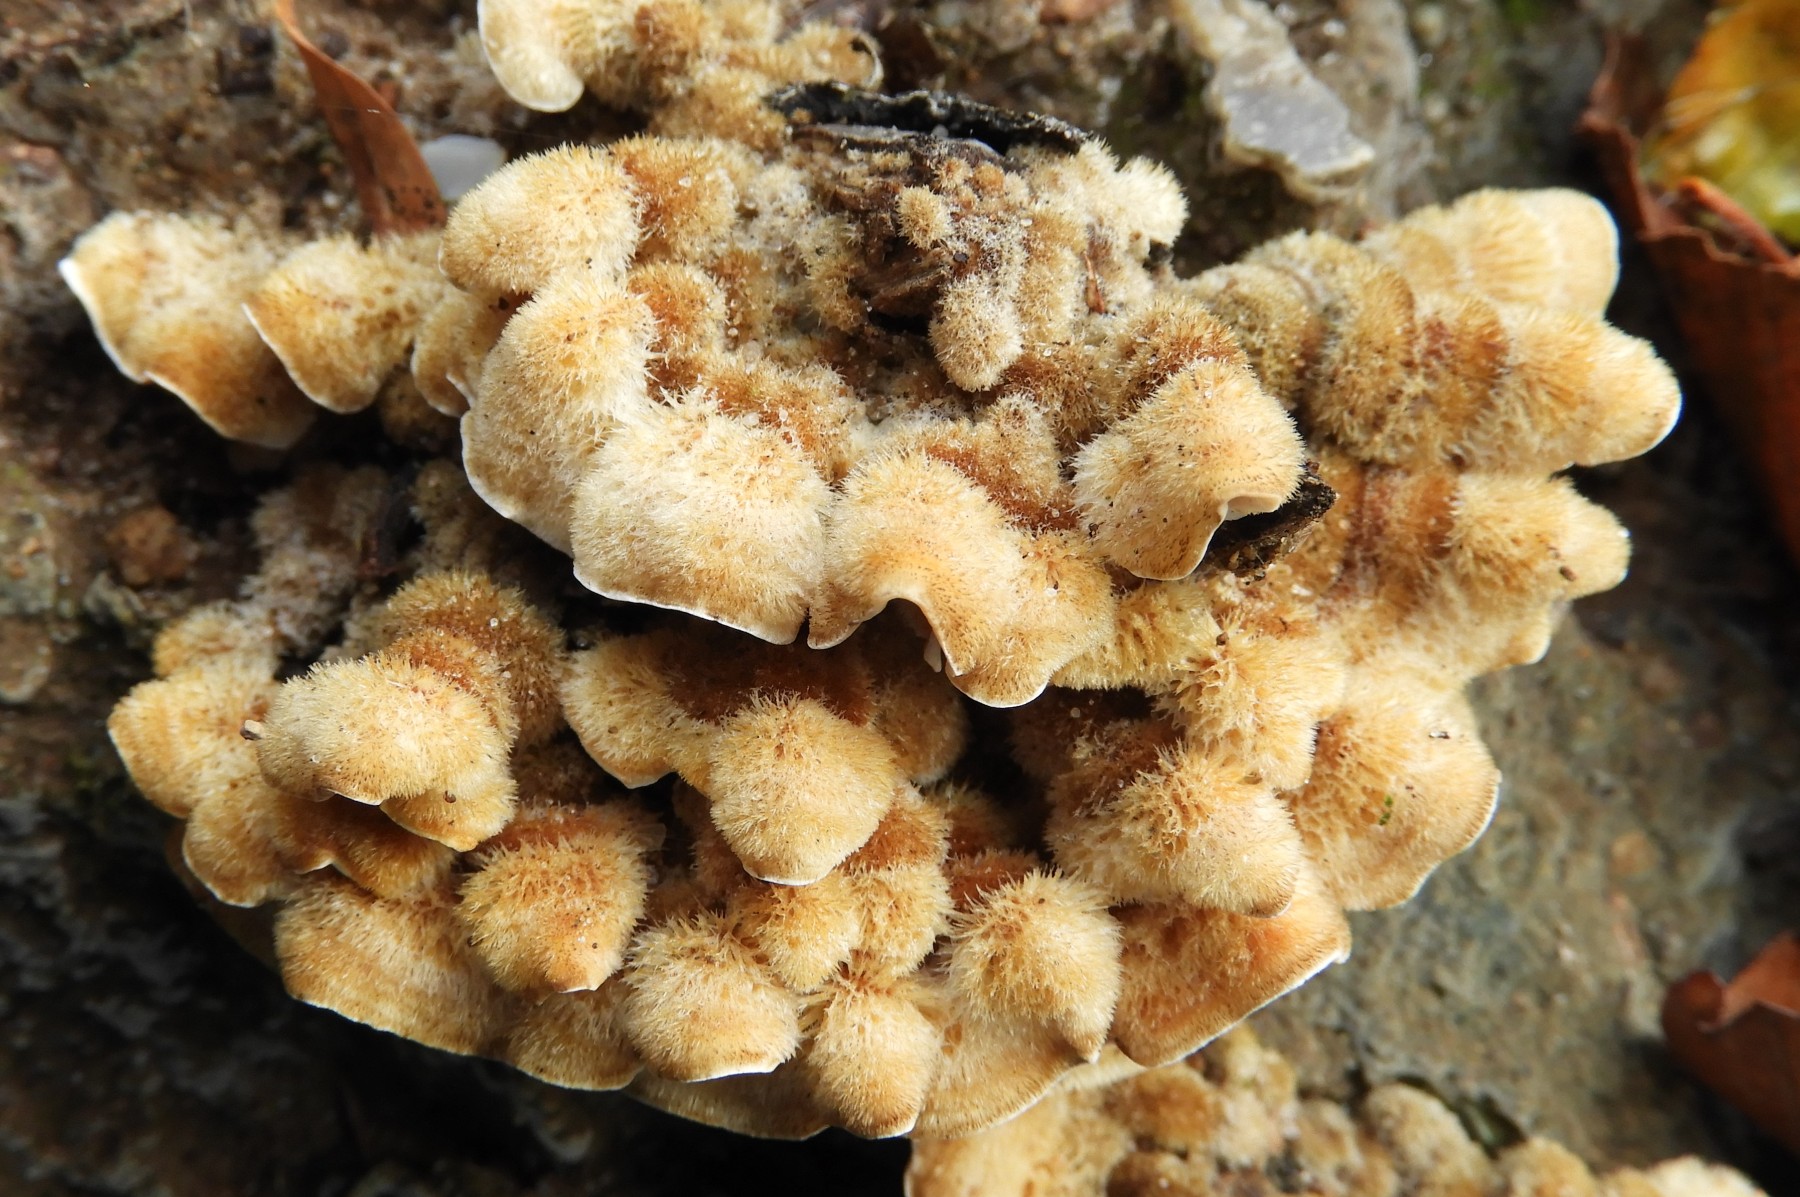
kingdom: Fungi
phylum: Basidiomycota
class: Agaricomycetes
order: Russulales
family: Stereaceae
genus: Stereum
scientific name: Stereum hirsutum
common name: håret lædersvamp
